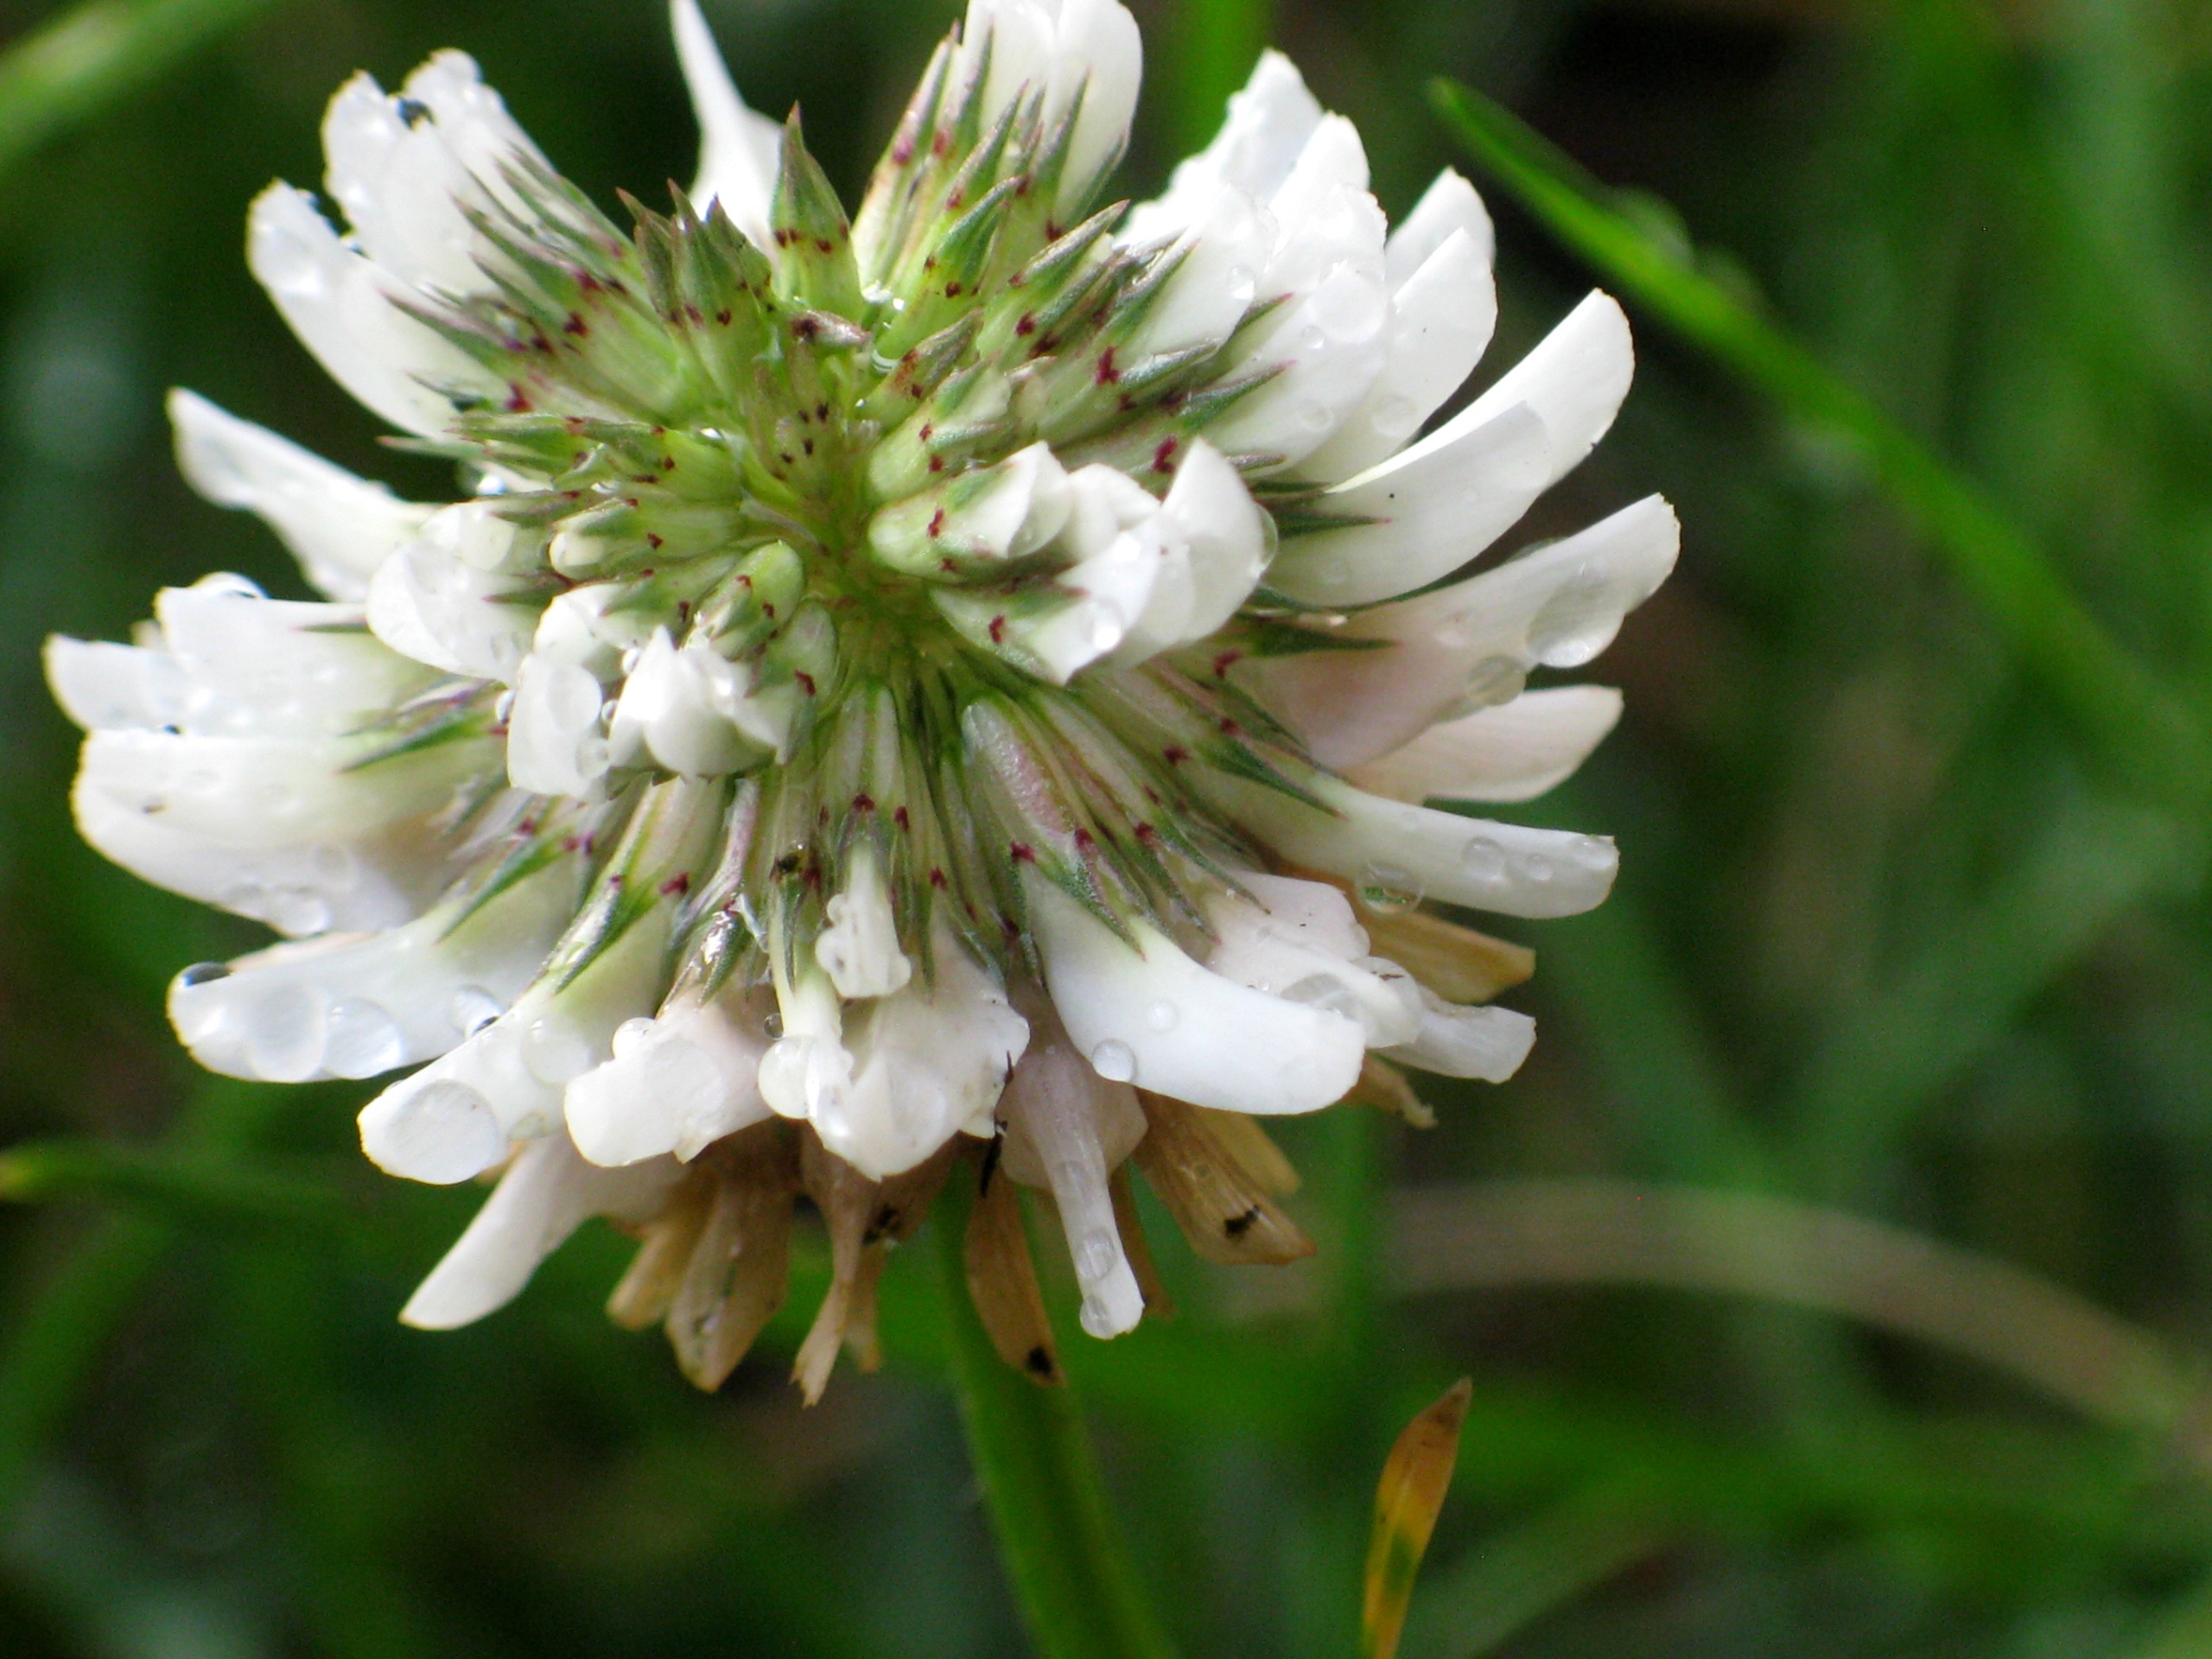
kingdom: Plantae
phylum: Tracheophyta
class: Magnoliopsida
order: Fabales
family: Fabaceae
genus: Trifolium
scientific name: Trifolium repens
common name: Hvid-kløver
